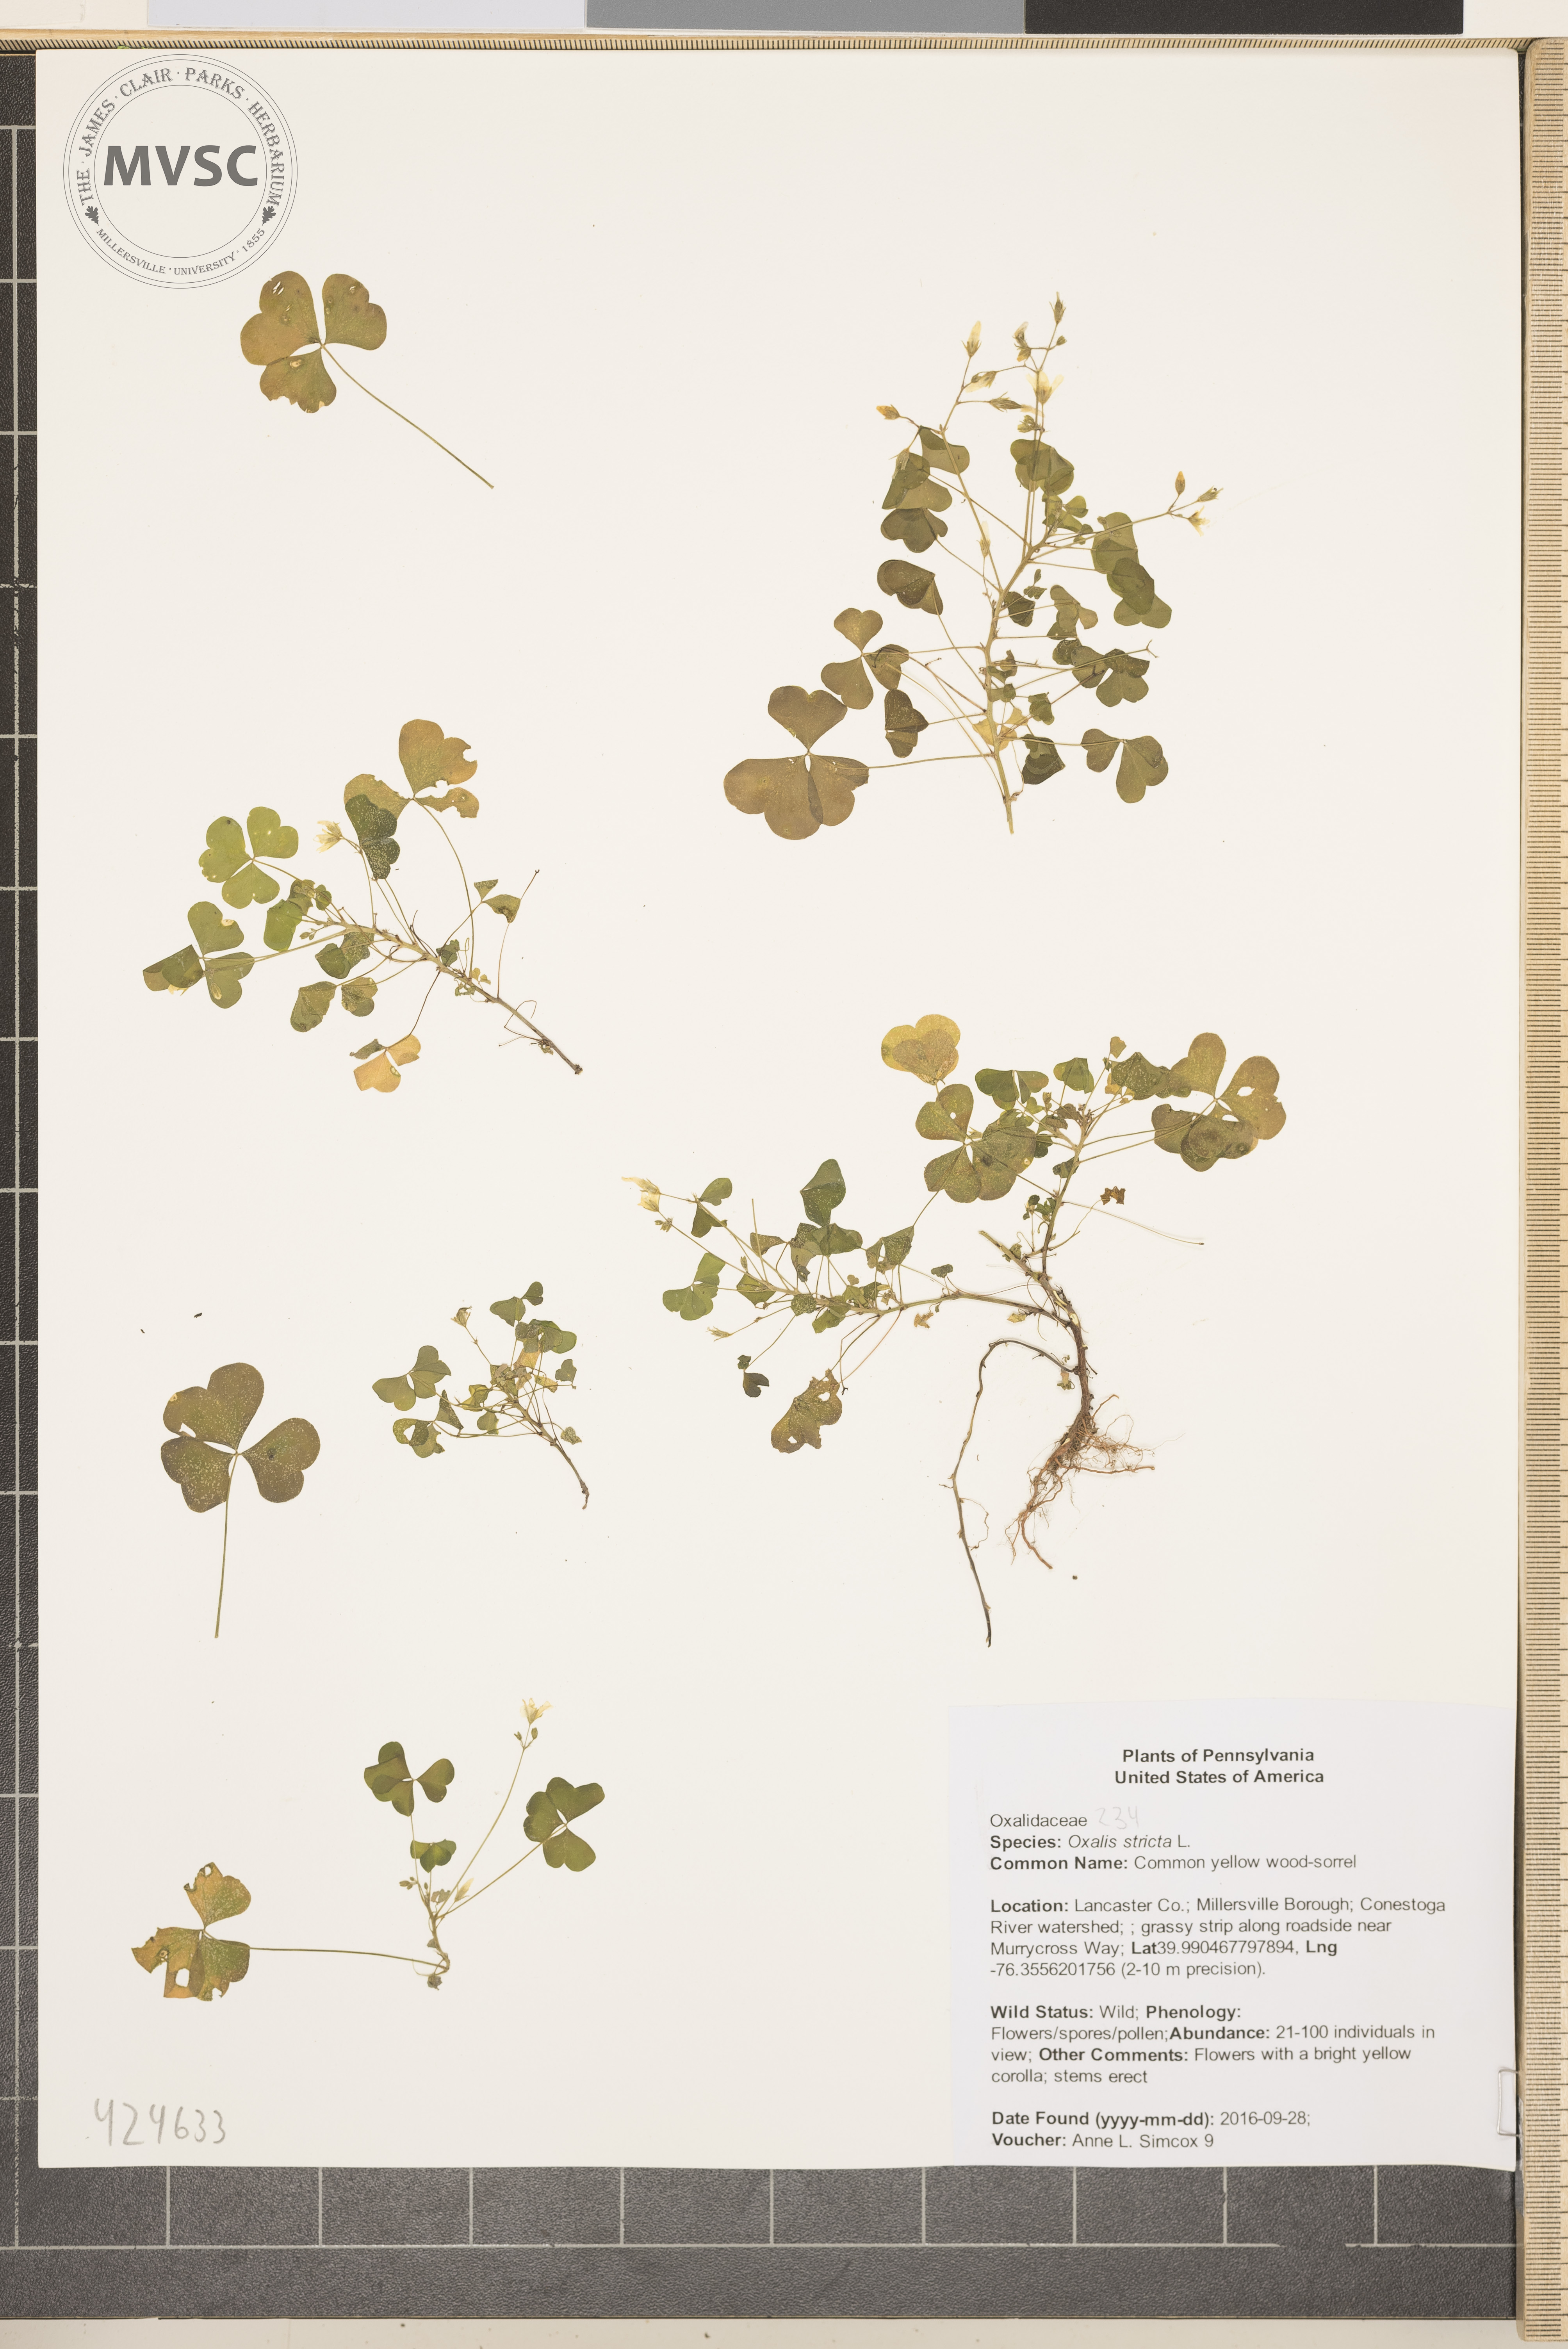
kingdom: Plantae
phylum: Tracheophyta
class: Magnoliopsida
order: Oxalidales
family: Oxalidaceae
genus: Oxalis
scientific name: Oxalis stricta
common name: Common yellow wood-sorrel
